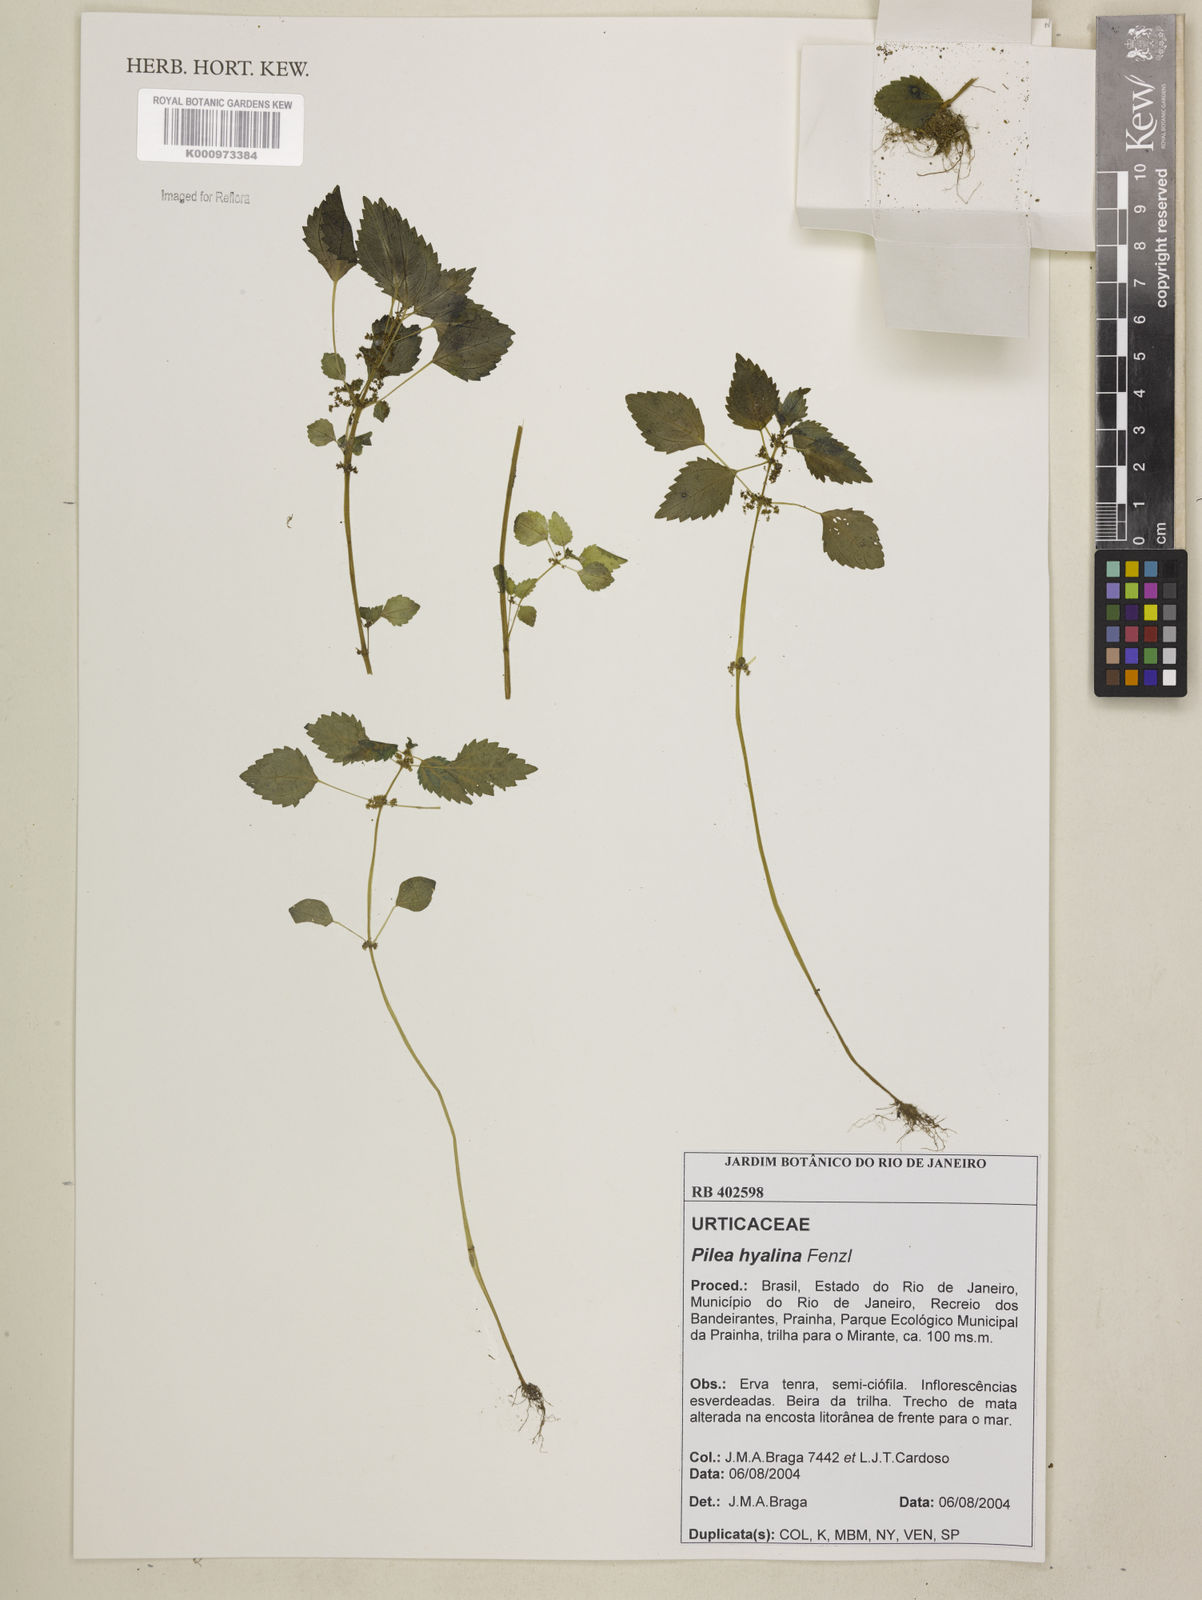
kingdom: Plantae
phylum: Tracheophyta
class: Magnoliopsida
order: Rosales
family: Urticaceae
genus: Pilea
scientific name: Pilea hyalina
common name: Virdrillo
